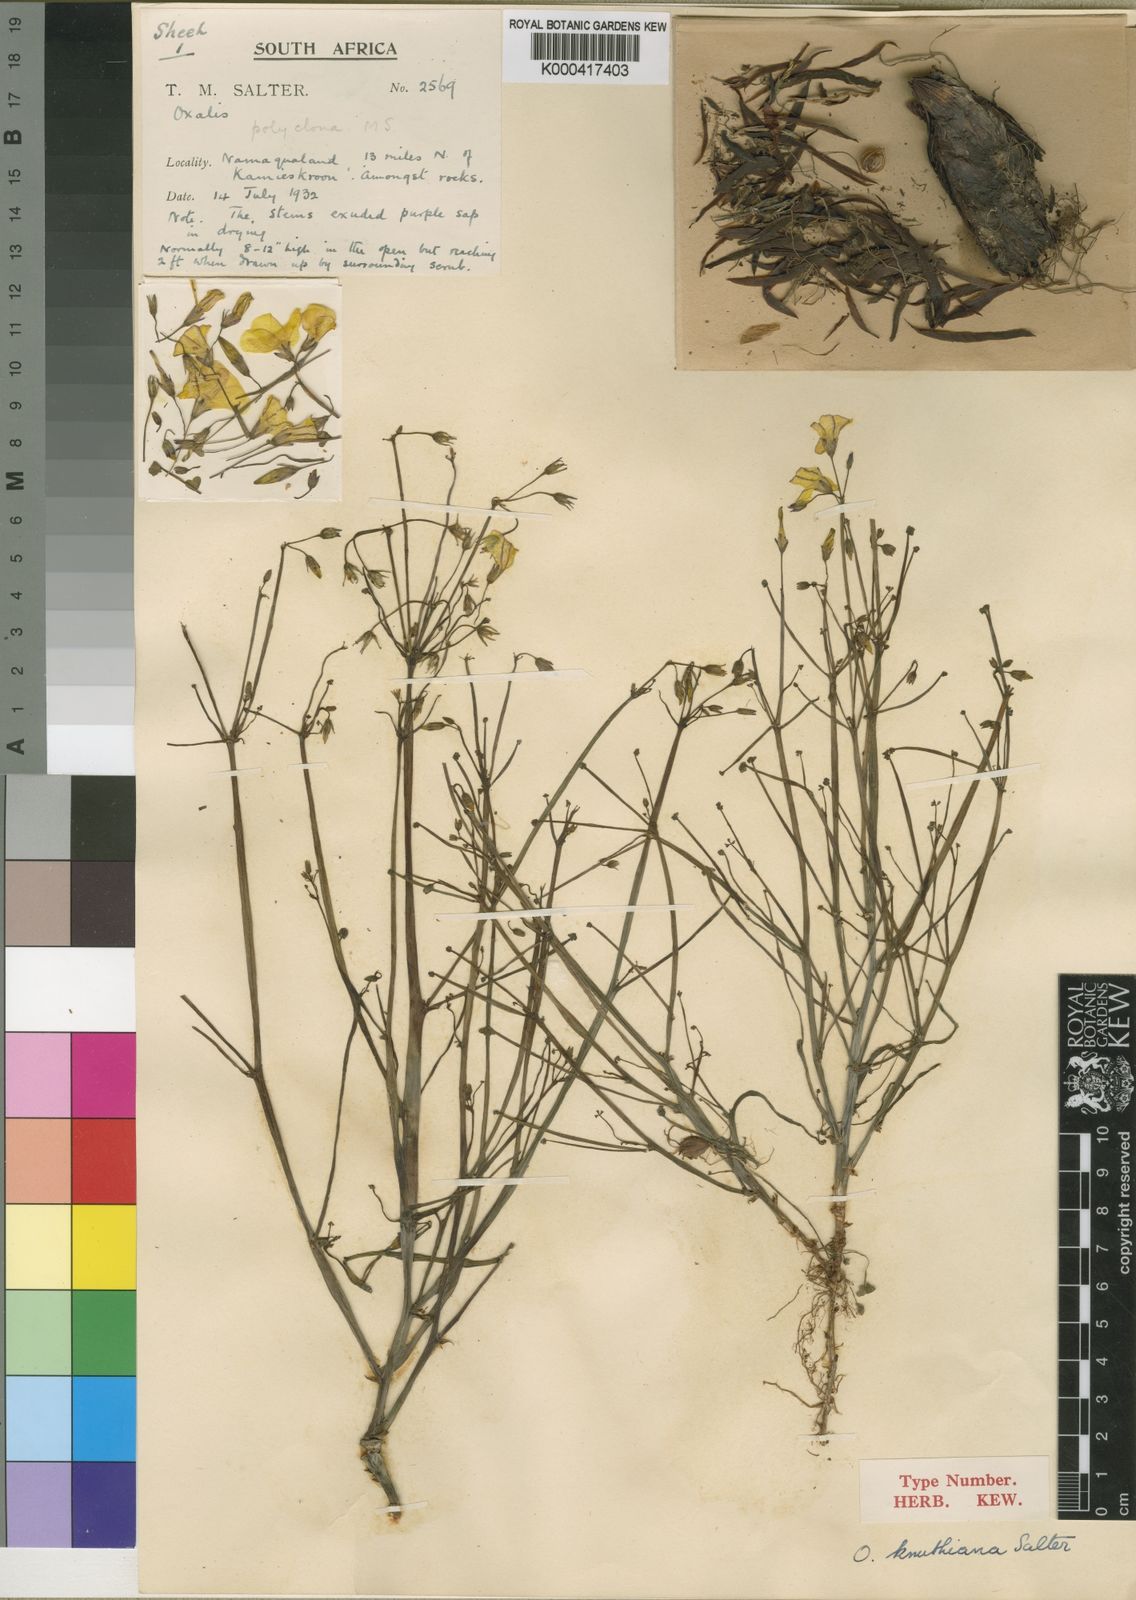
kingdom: Plantae
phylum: Tracheophyta
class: Magnoliopsida
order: Oxalidales
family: Oxalidaceae
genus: Oxalis
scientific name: Oxalis knuthiana
